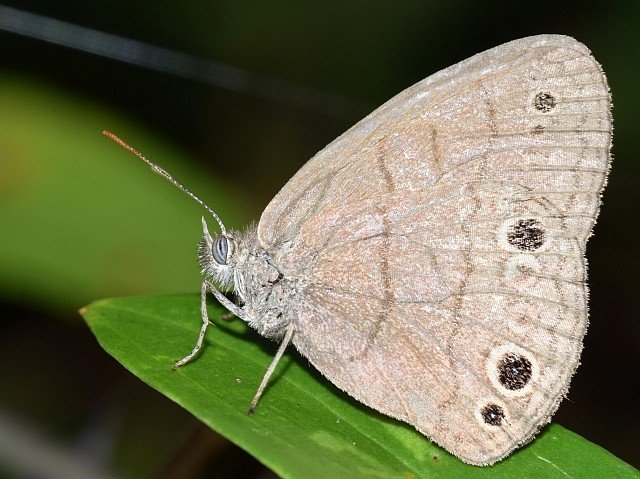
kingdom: Animalia
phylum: Arthropoda
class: Insecta
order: Lepidoptera
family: Nymphalidae
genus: Hermeuptychia
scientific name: Hermeuptychia hermes
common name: Carolina Satyr
